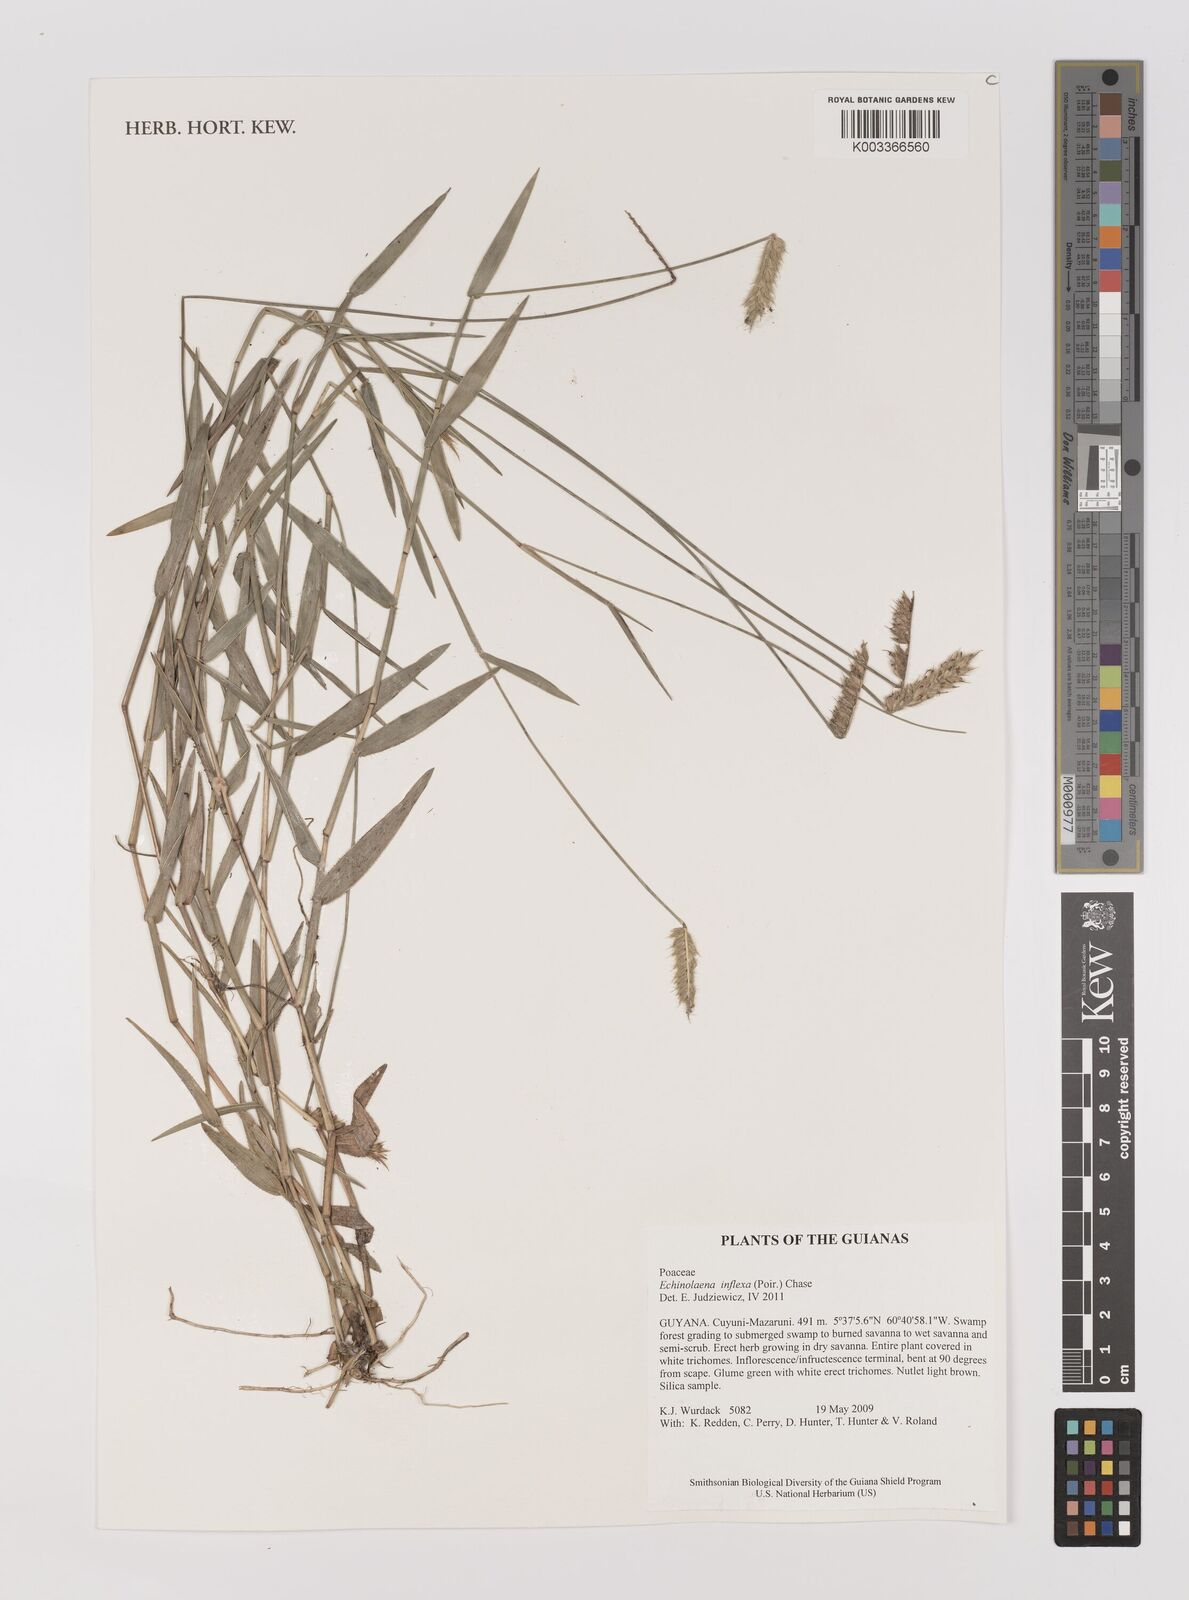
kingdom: Plantae
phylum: Tracheophyta
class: Liliopsida
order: Poales
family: Poaceae
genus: Echinolaena
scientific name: Echinolaena inflexa
